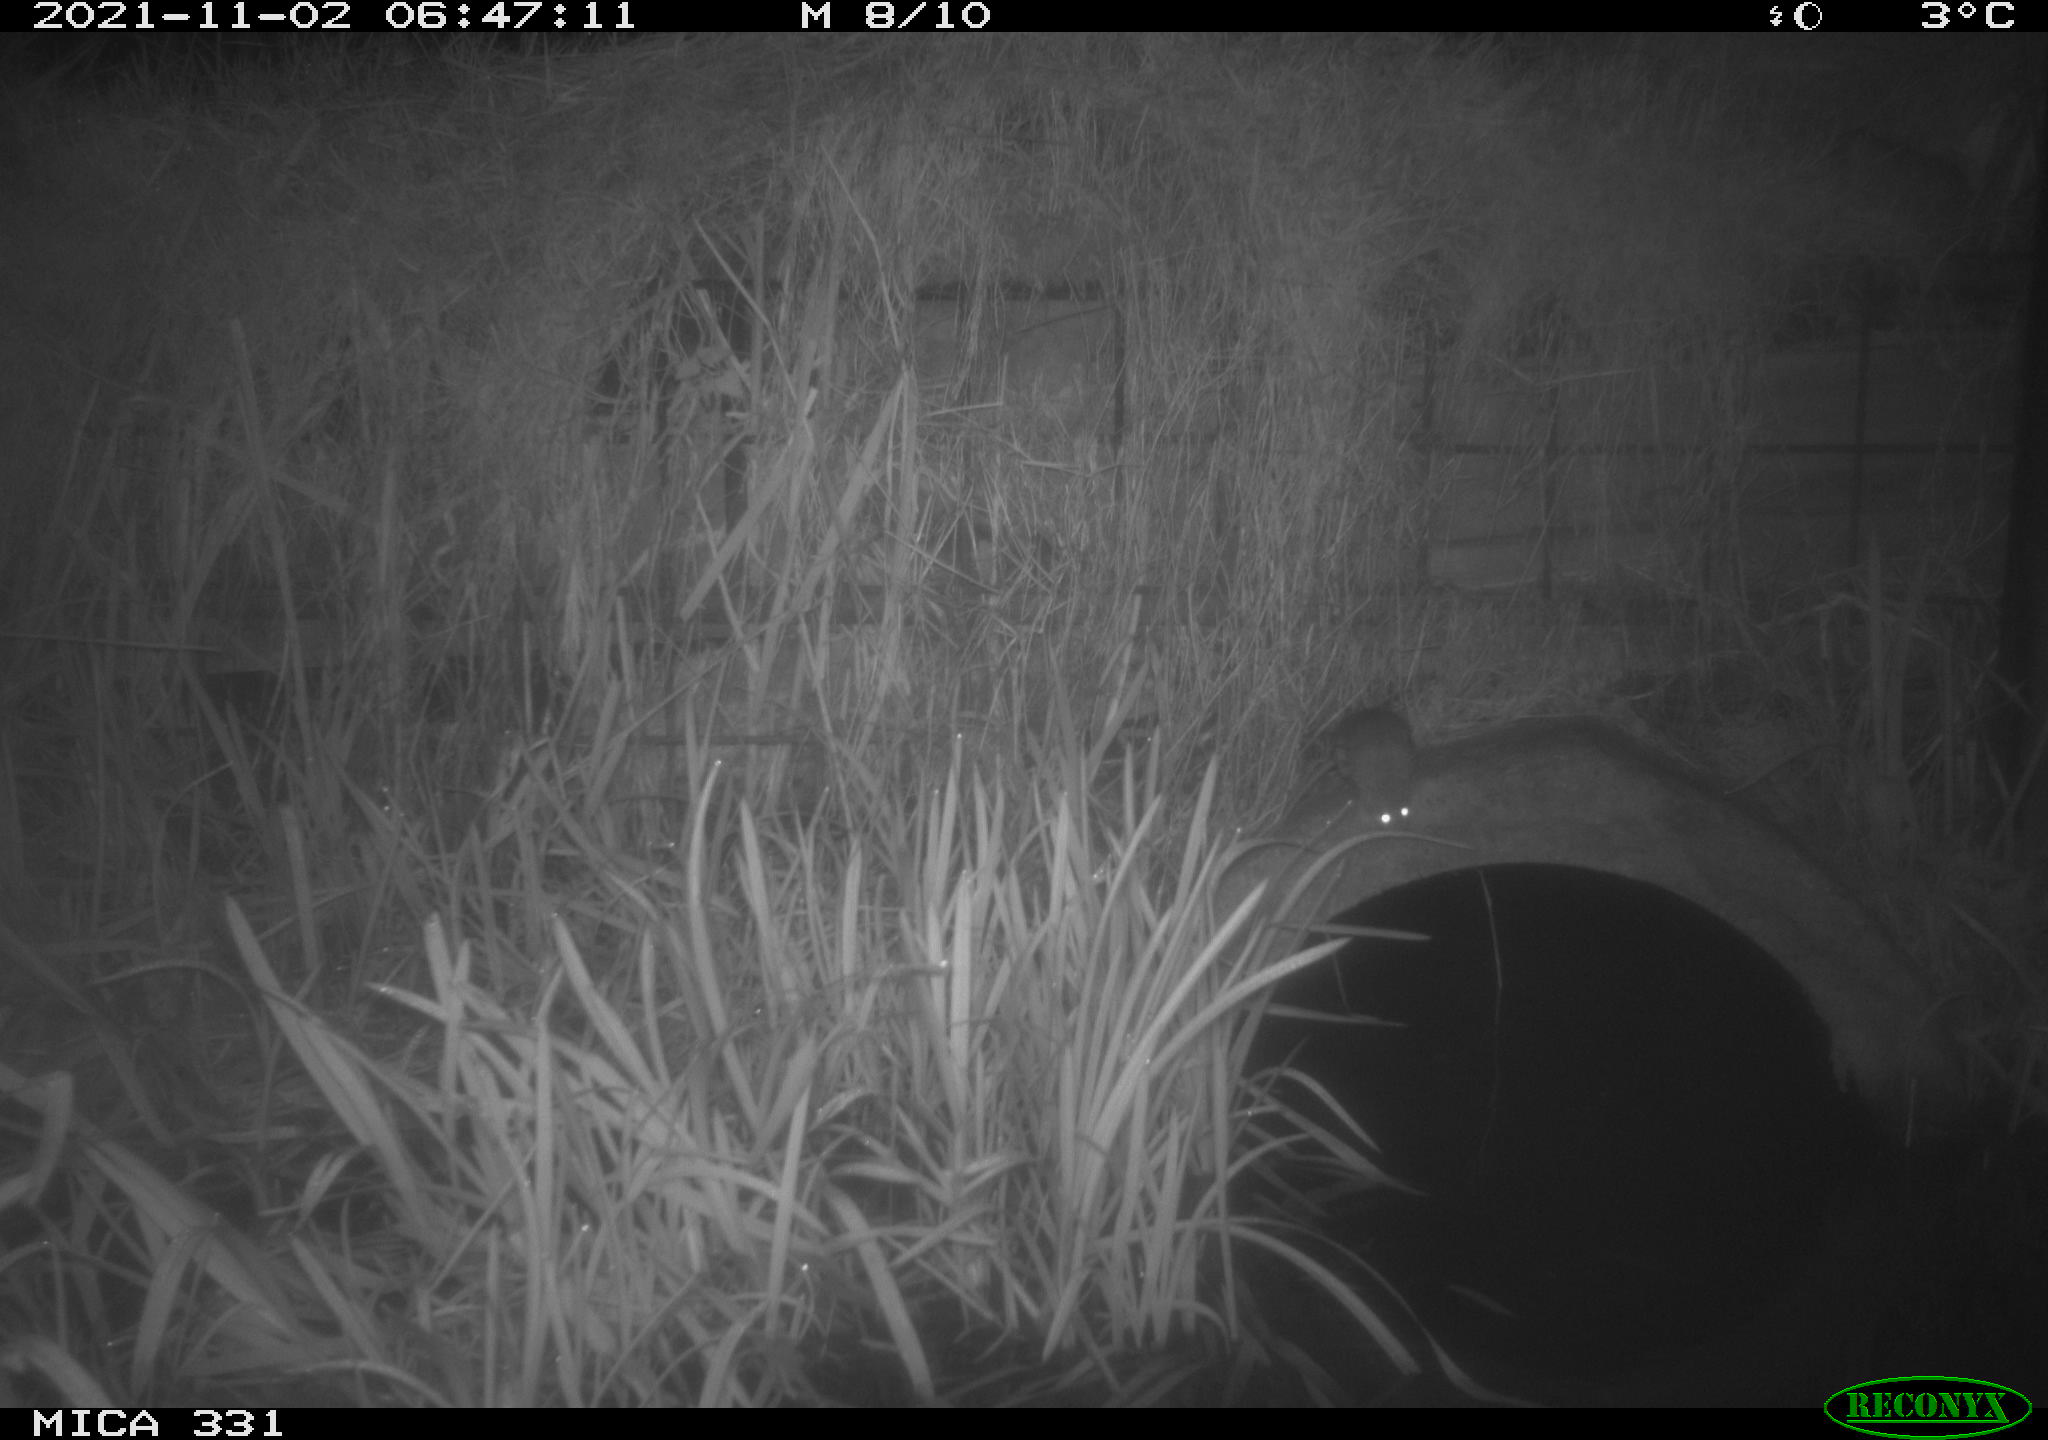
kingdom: Animalia
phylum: Chordata
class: Mammalia
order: Rodentia
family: Muridae
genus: Rattus
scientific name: Rattus norvegicus
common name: Brown rat
